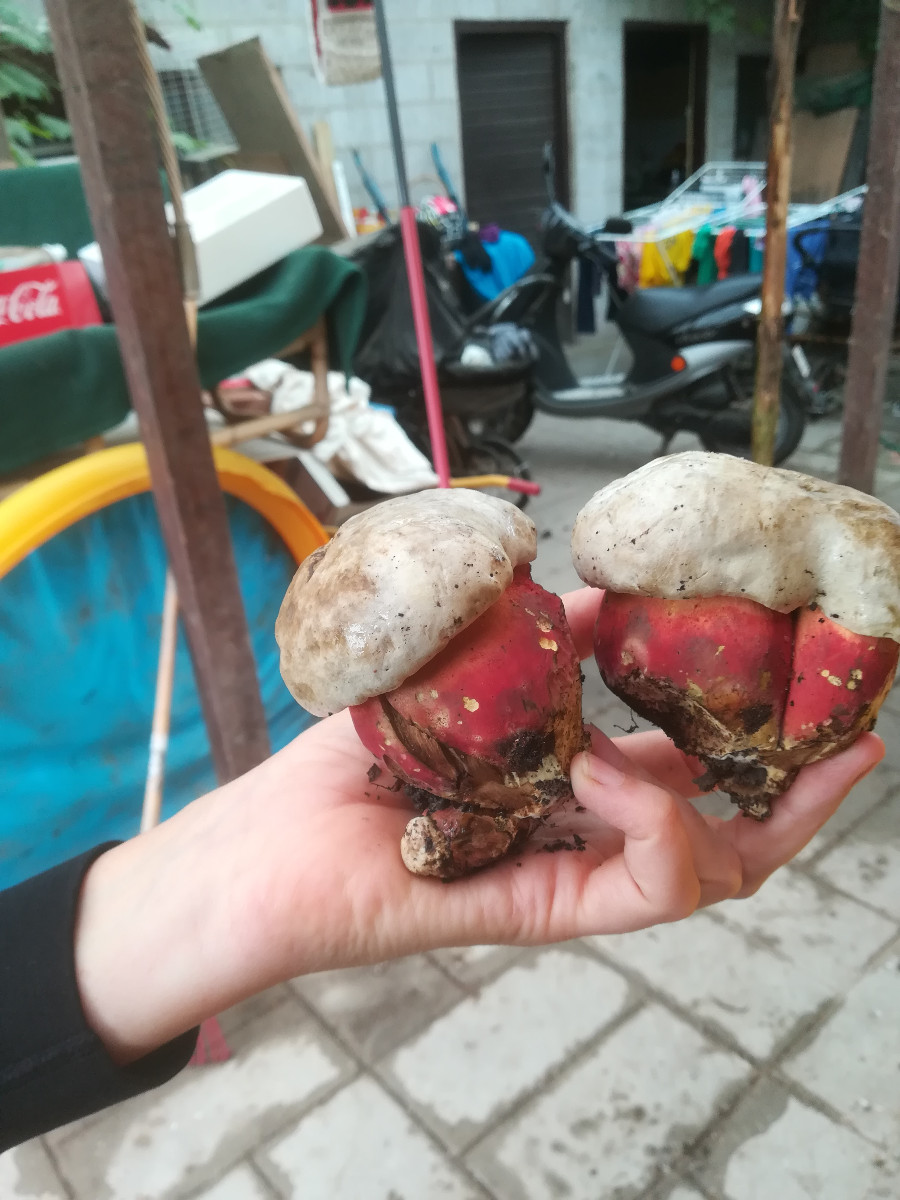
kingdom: Fungi
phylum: Basidiomycota
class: Agaricomycetes
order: Boletales
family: Boletaceae
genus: Rubroboletus
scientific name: Rubroboletus satanas
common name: Satans rørhat
